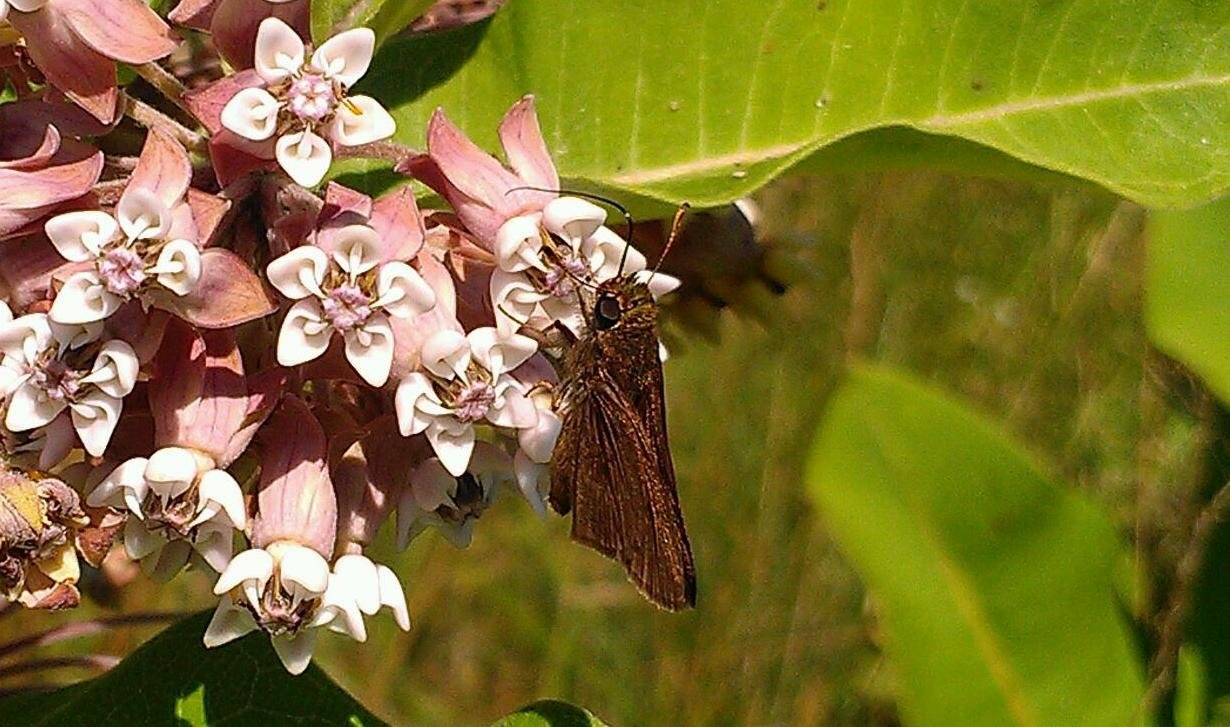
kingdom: Animalia
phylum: Arthropoda
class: Insecta
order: Lepidoptera
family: Hesperiidae
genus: Euphyes
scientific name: Euphyes vestris
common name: Dun Skipper
